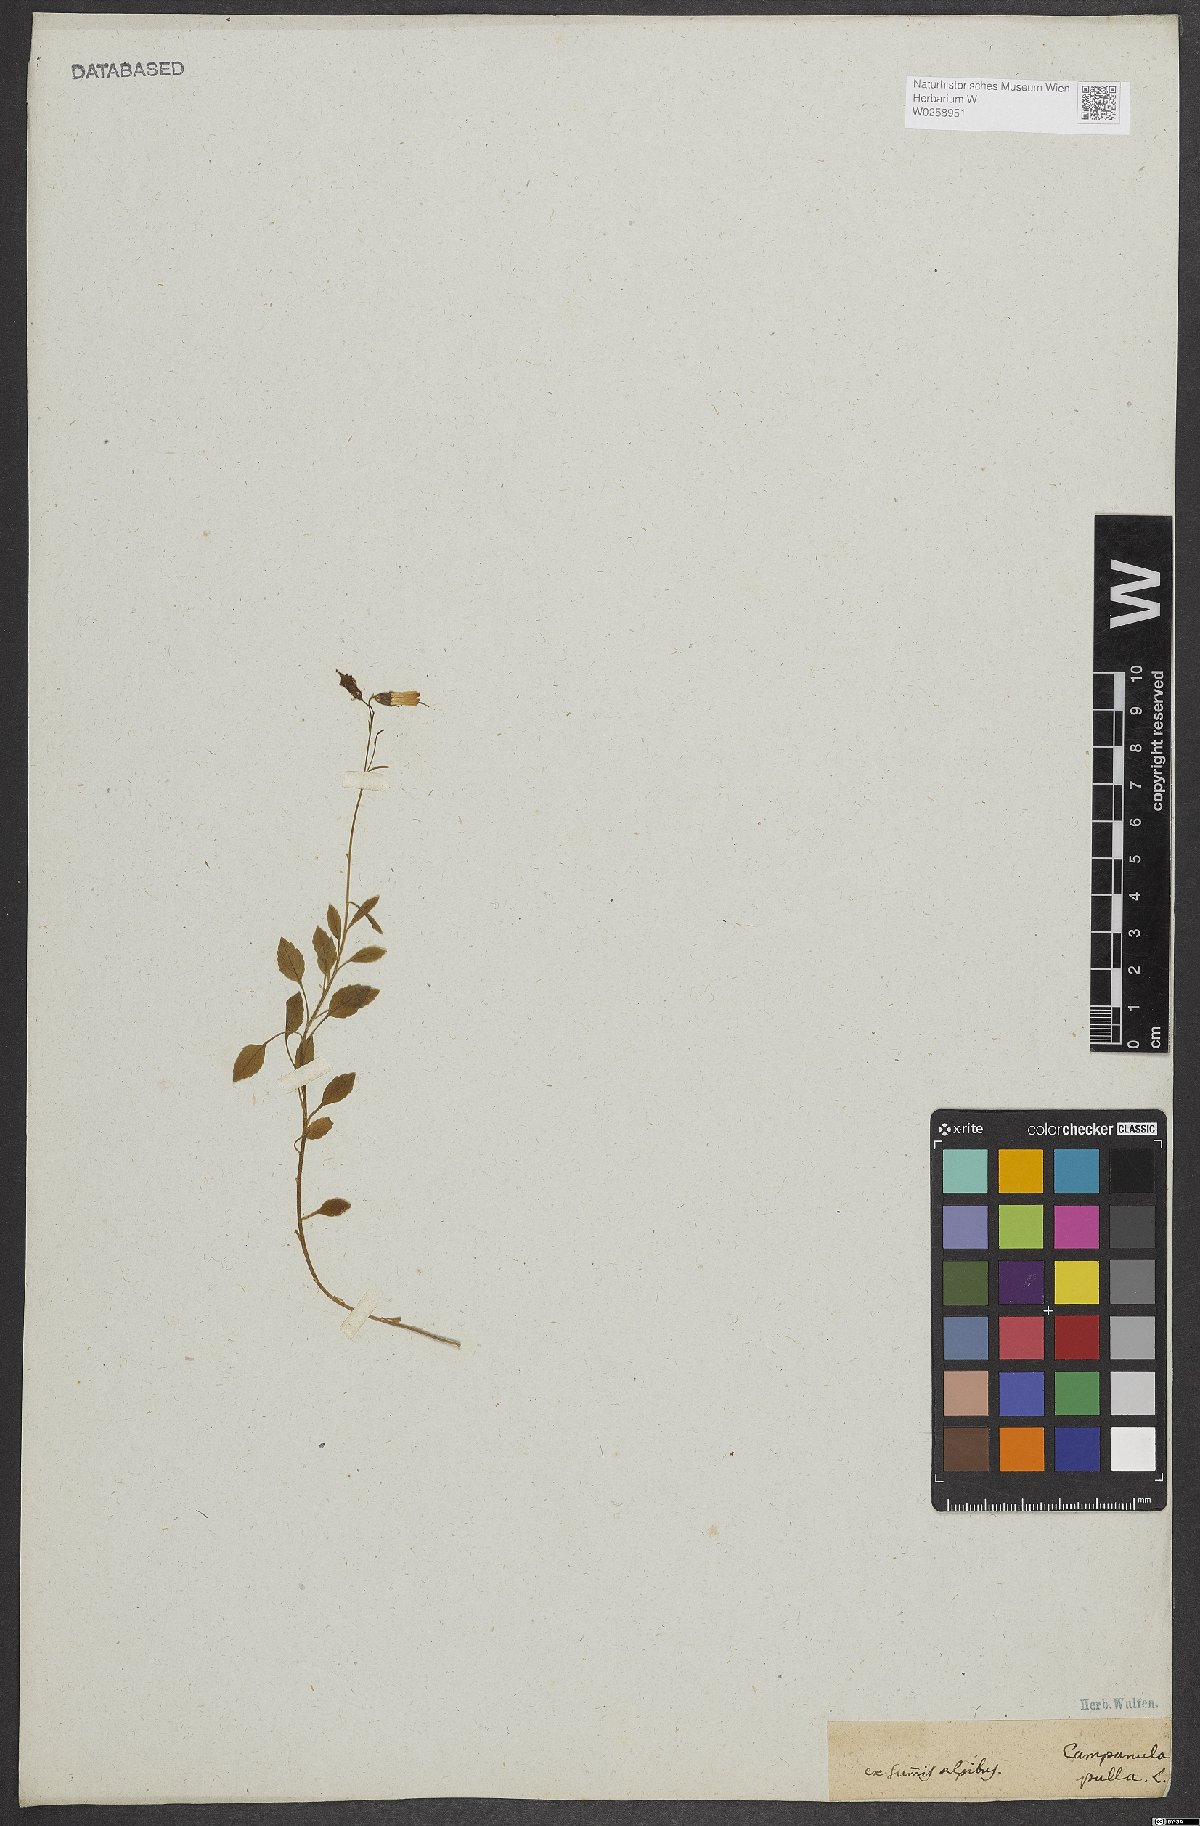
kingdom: Plantae
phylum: Tracheophyta
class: Magnoliopsida
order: Asterales
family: Campanulaceae
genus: Campanula
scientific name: Campanula pulla
